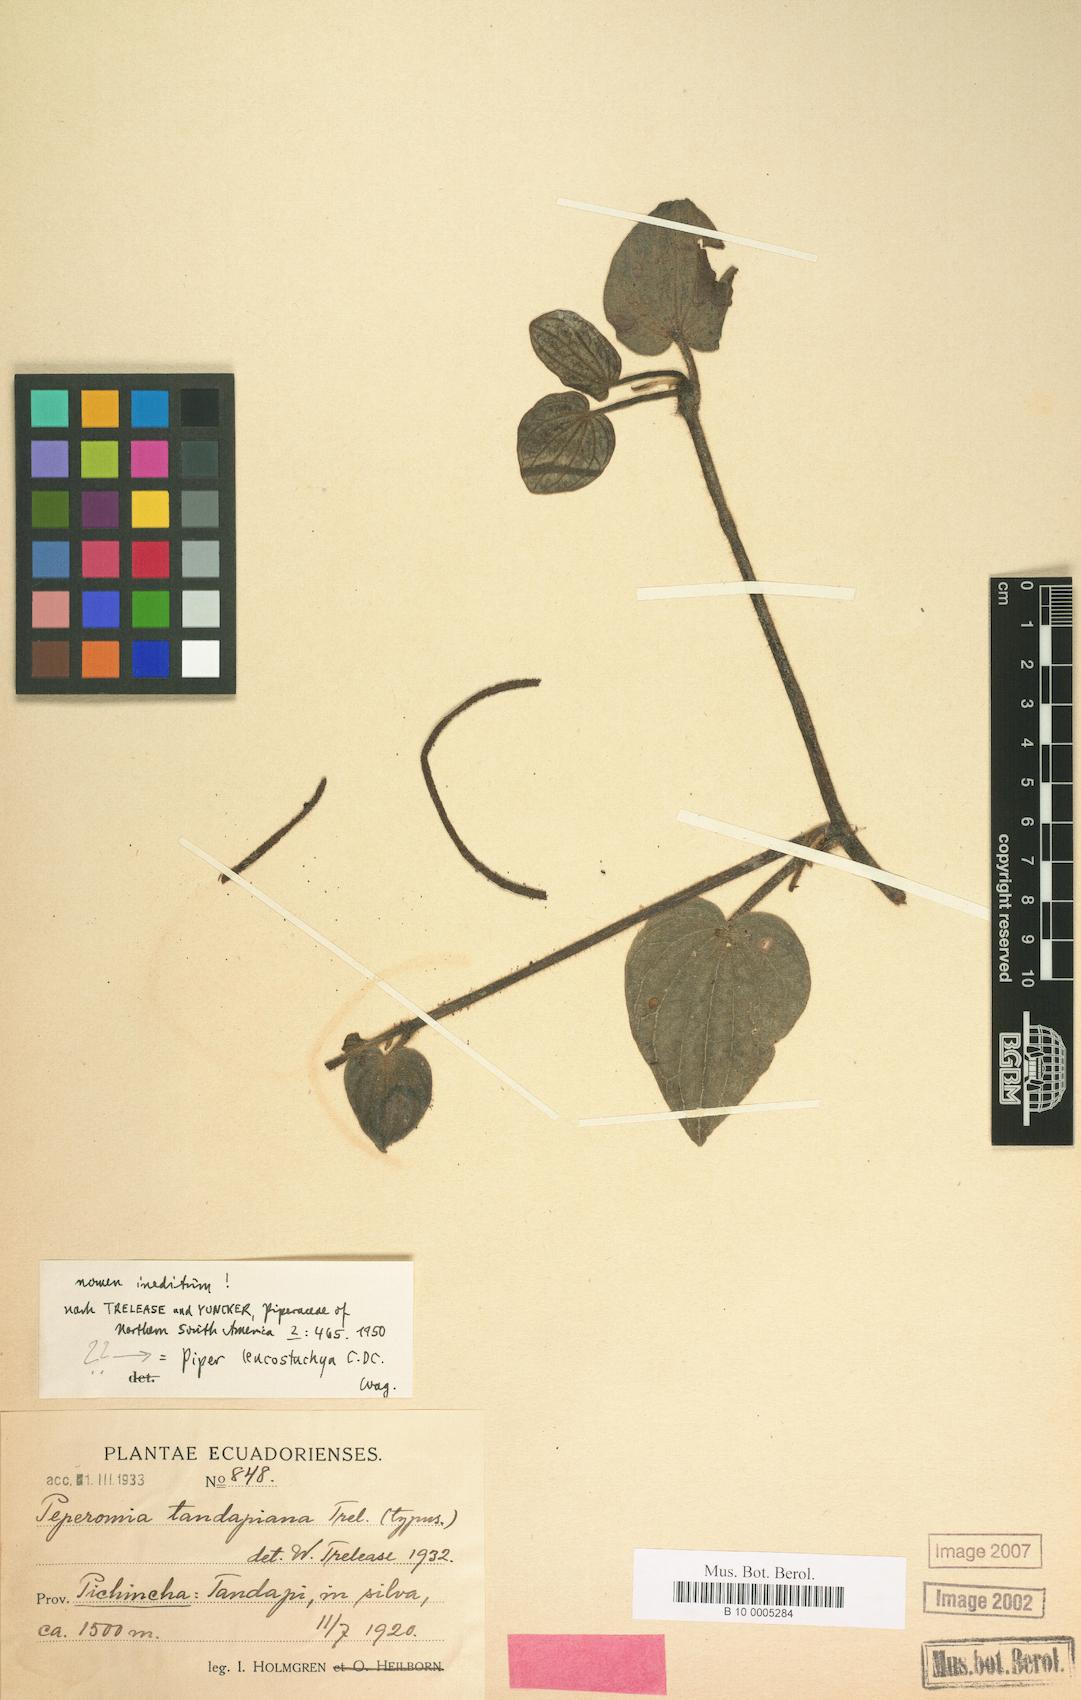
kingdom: Plantae
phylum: Tracheophyta
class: Magnoliopsida
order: Piperales
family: Piperaceae
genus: Peperomia
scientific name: Peperomia
